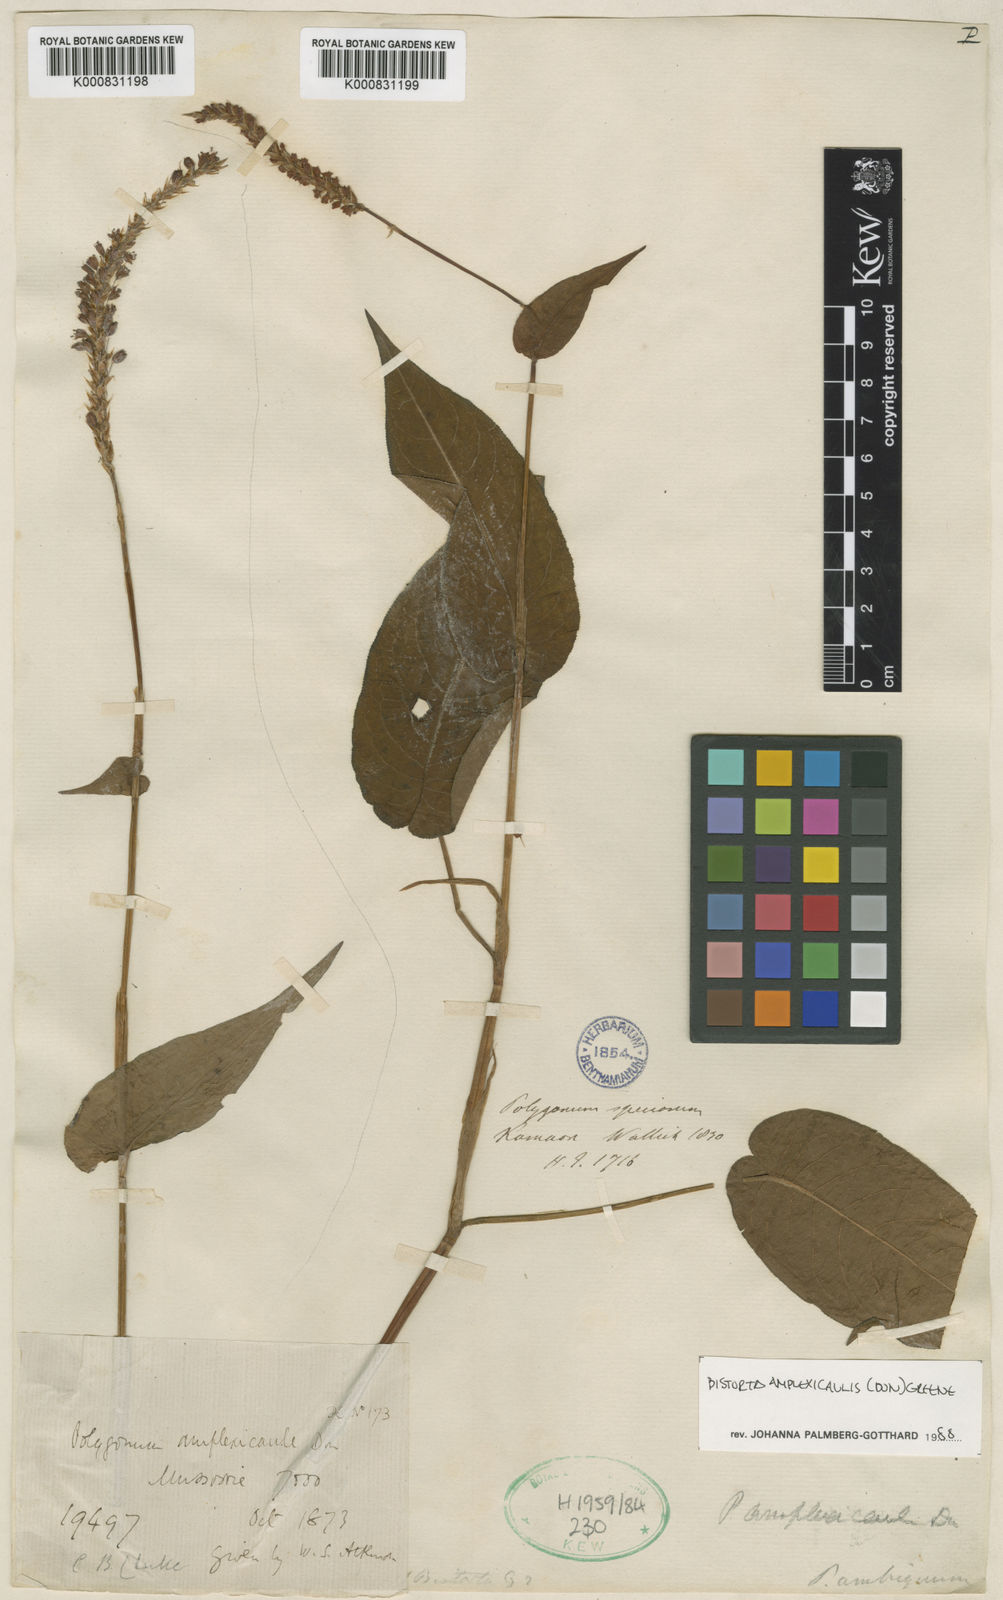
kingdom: Plantae
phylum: Tracheophyta
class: Magnoliopsida
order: Caryophyllales
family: Polygonaceae
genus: Bistorta
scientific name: Bistorta amplexicaulis
